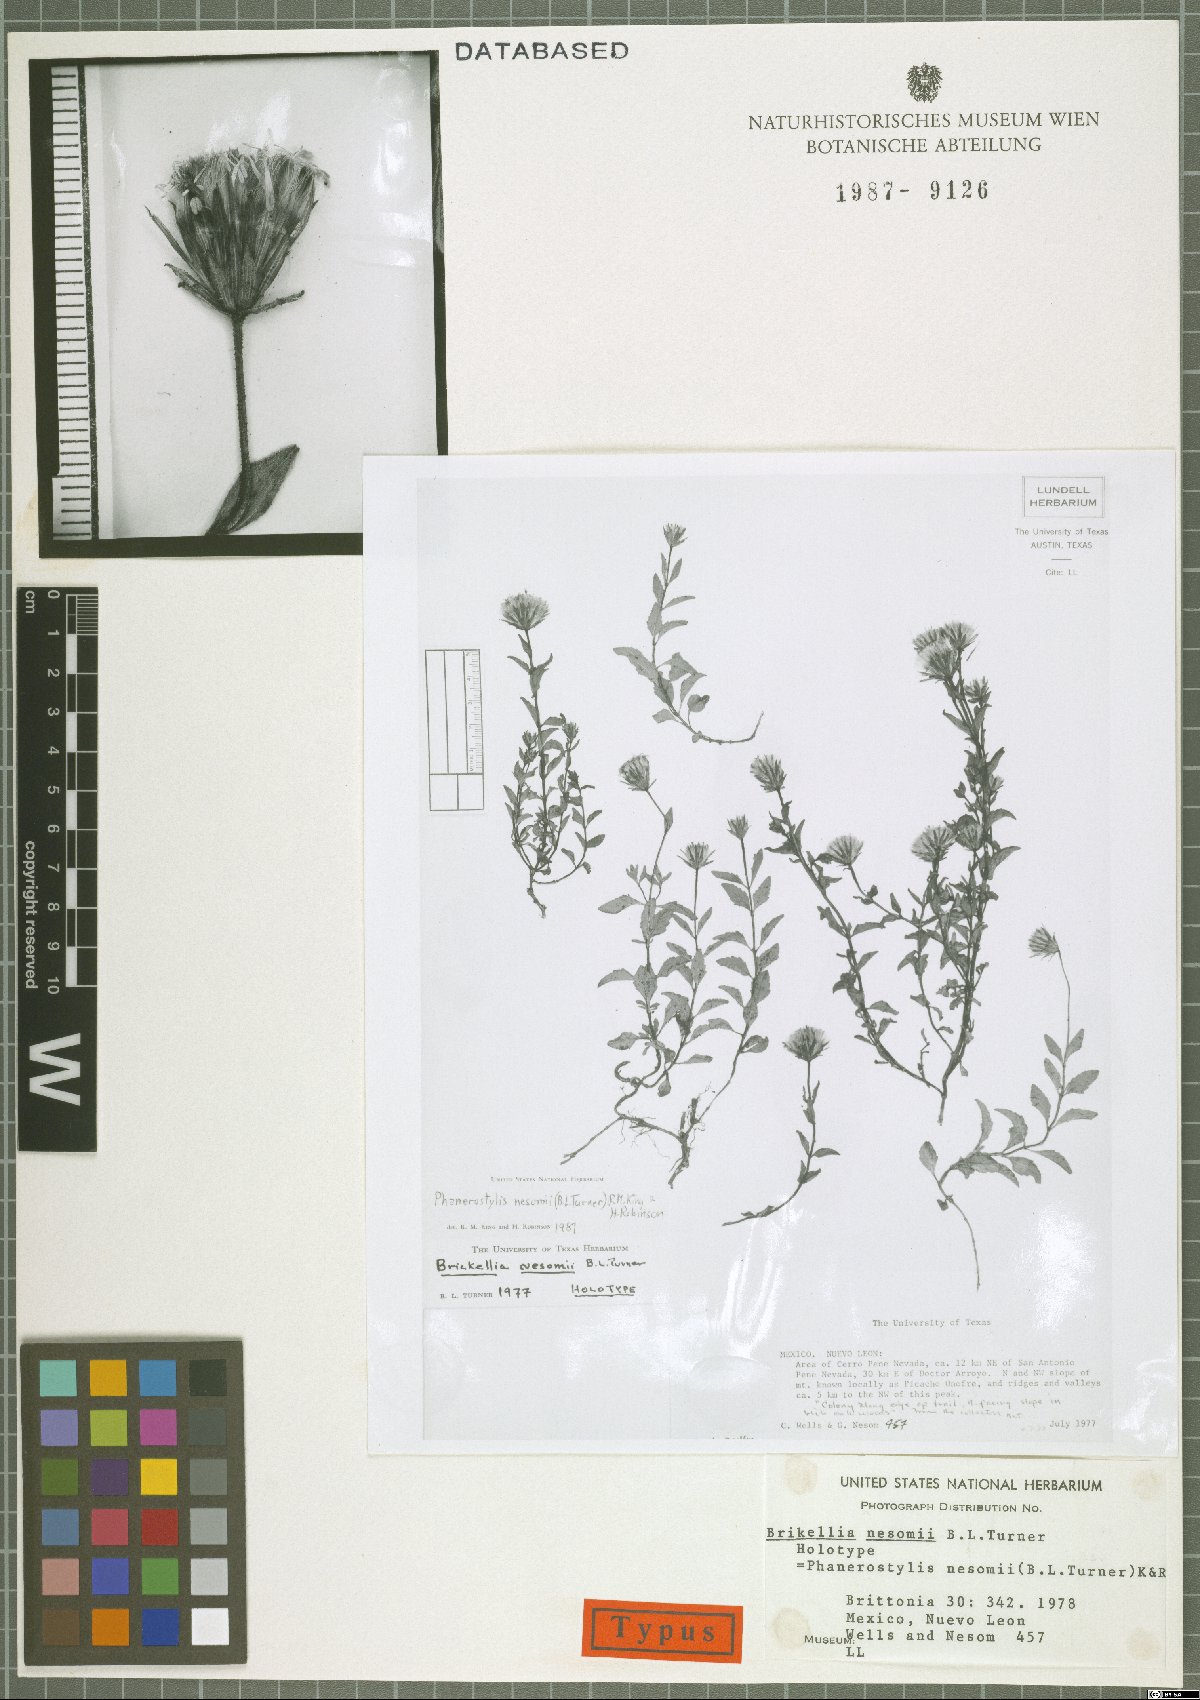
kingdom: Plantae
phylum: Tracheophyta
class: Magnoliopsida
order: Asterales
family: Asteraceae
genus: Brickellia
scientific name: Brickellia nesomii
